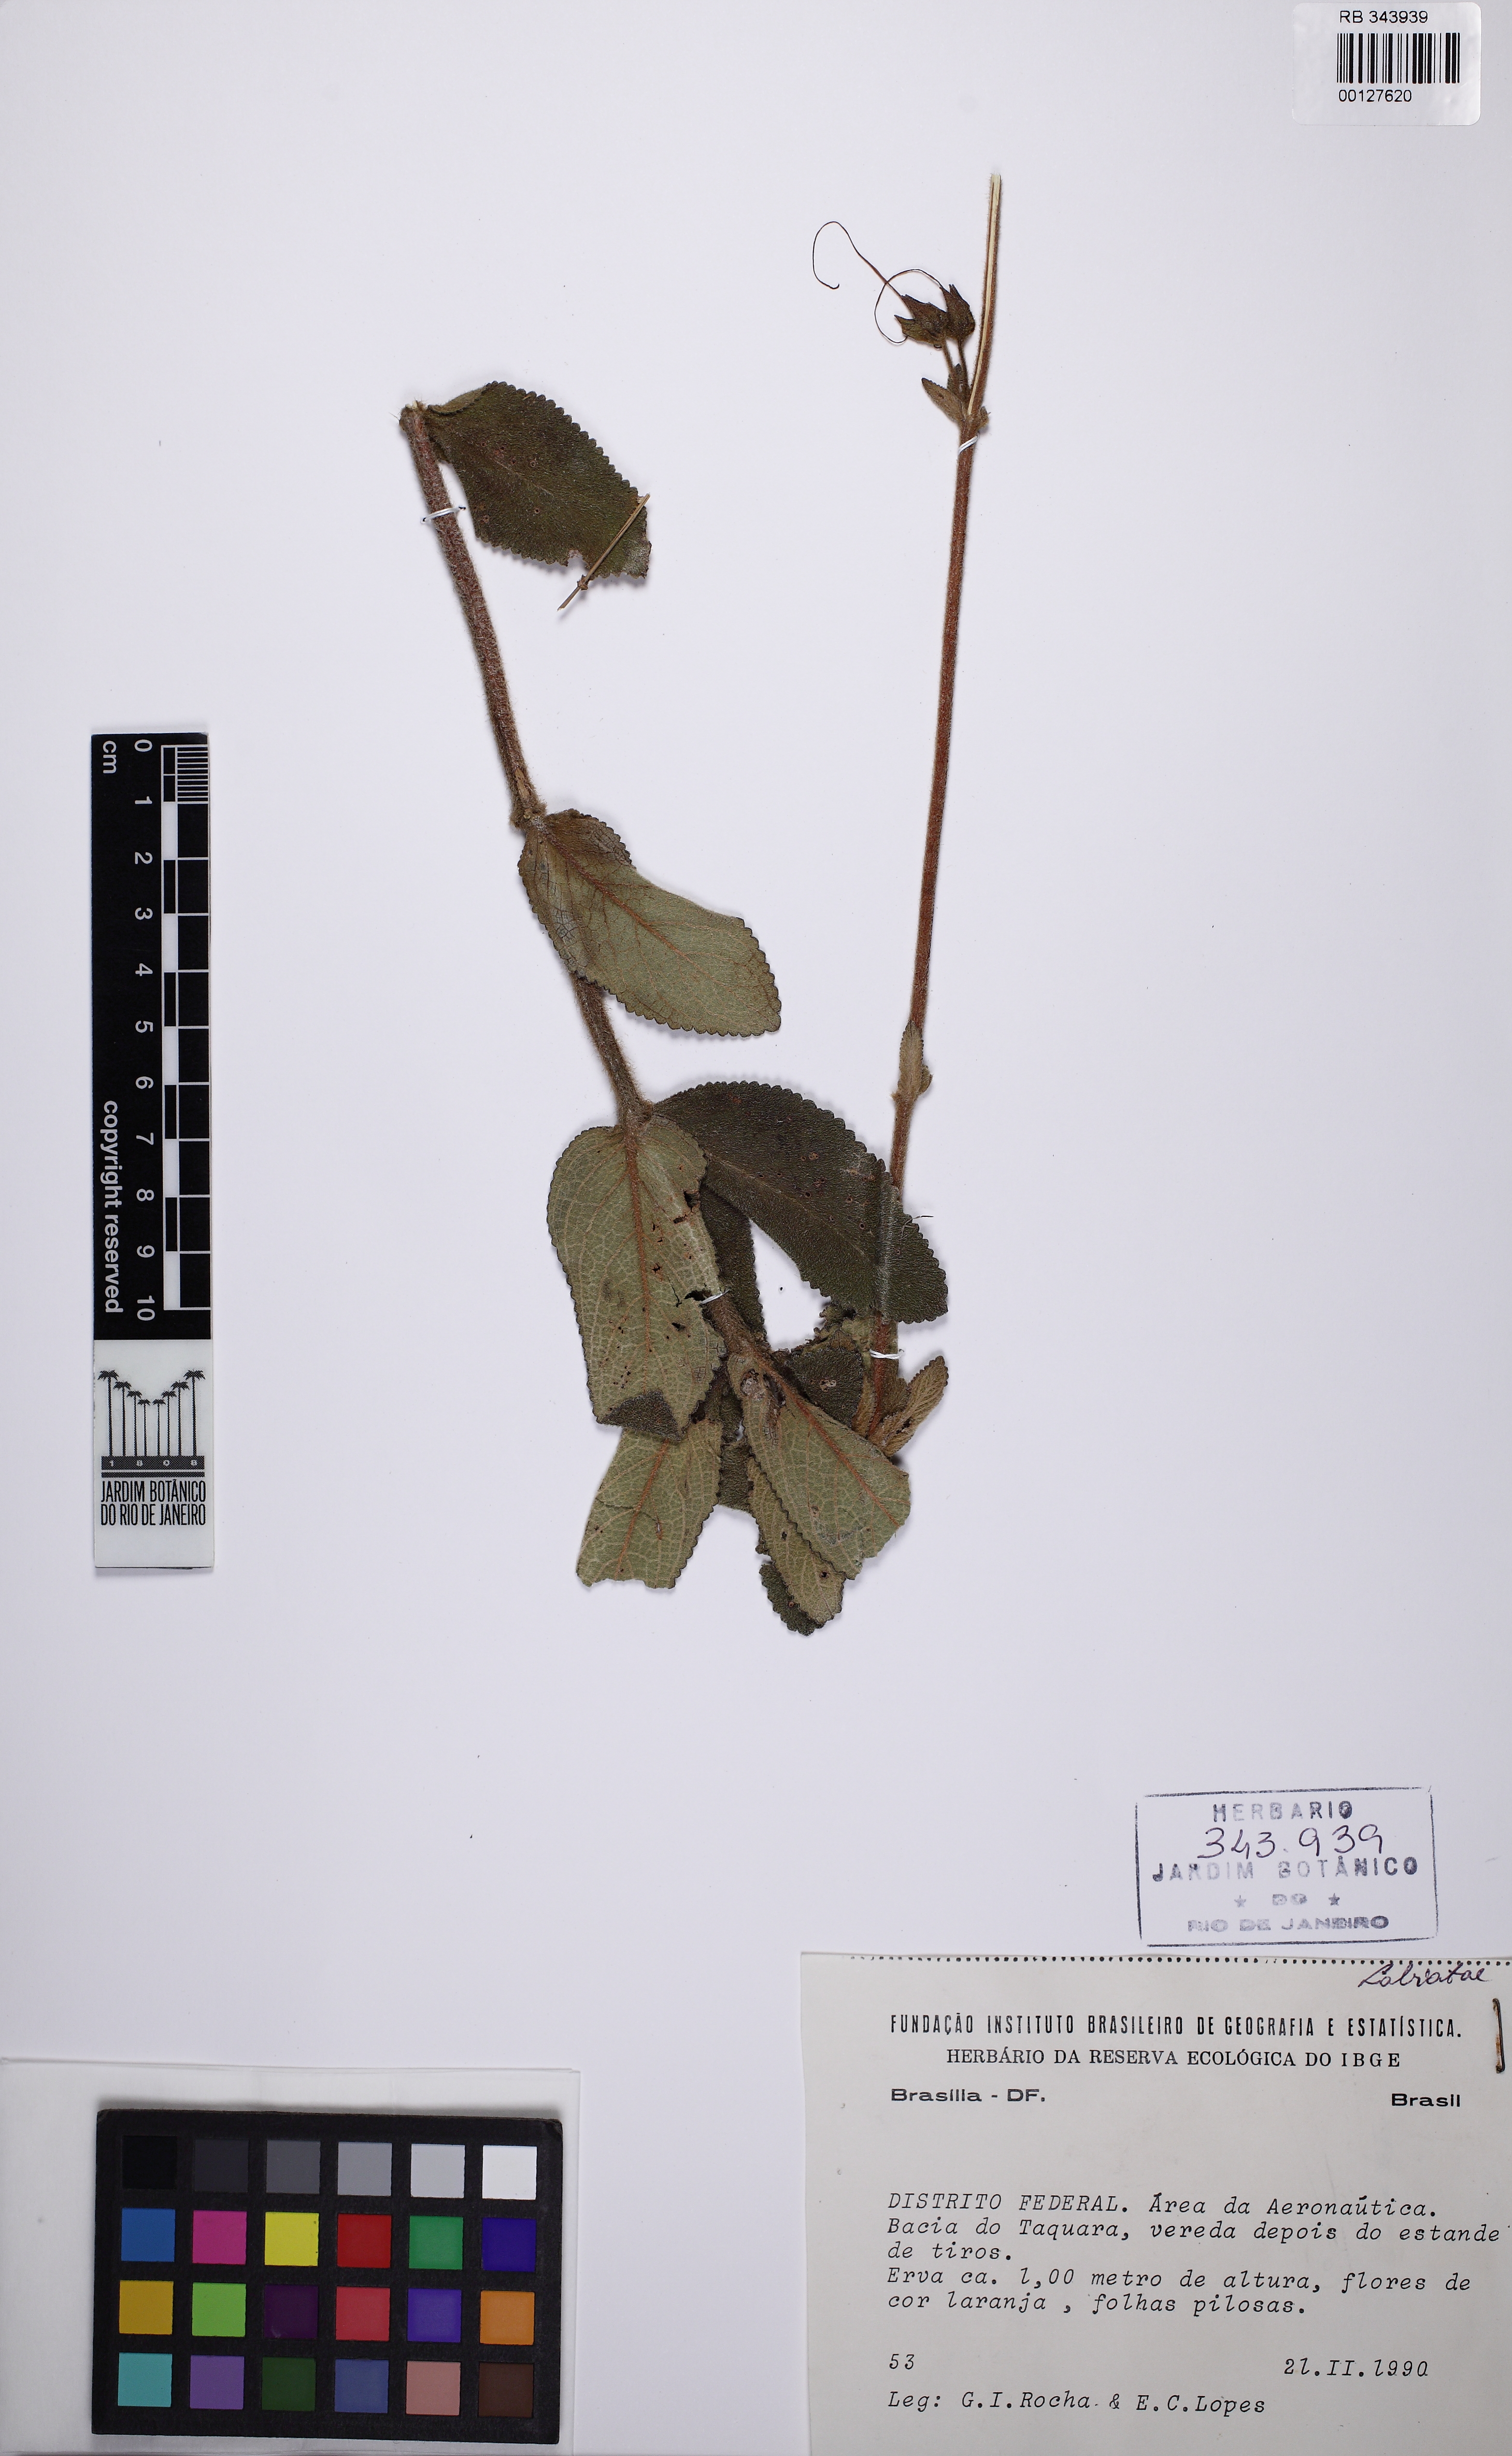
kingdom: Plantae
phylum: Tracheophyta
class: Magnoliopsida
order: Lamiales
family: Gesneriaceae
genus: Sinningia
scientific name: Sinningia
